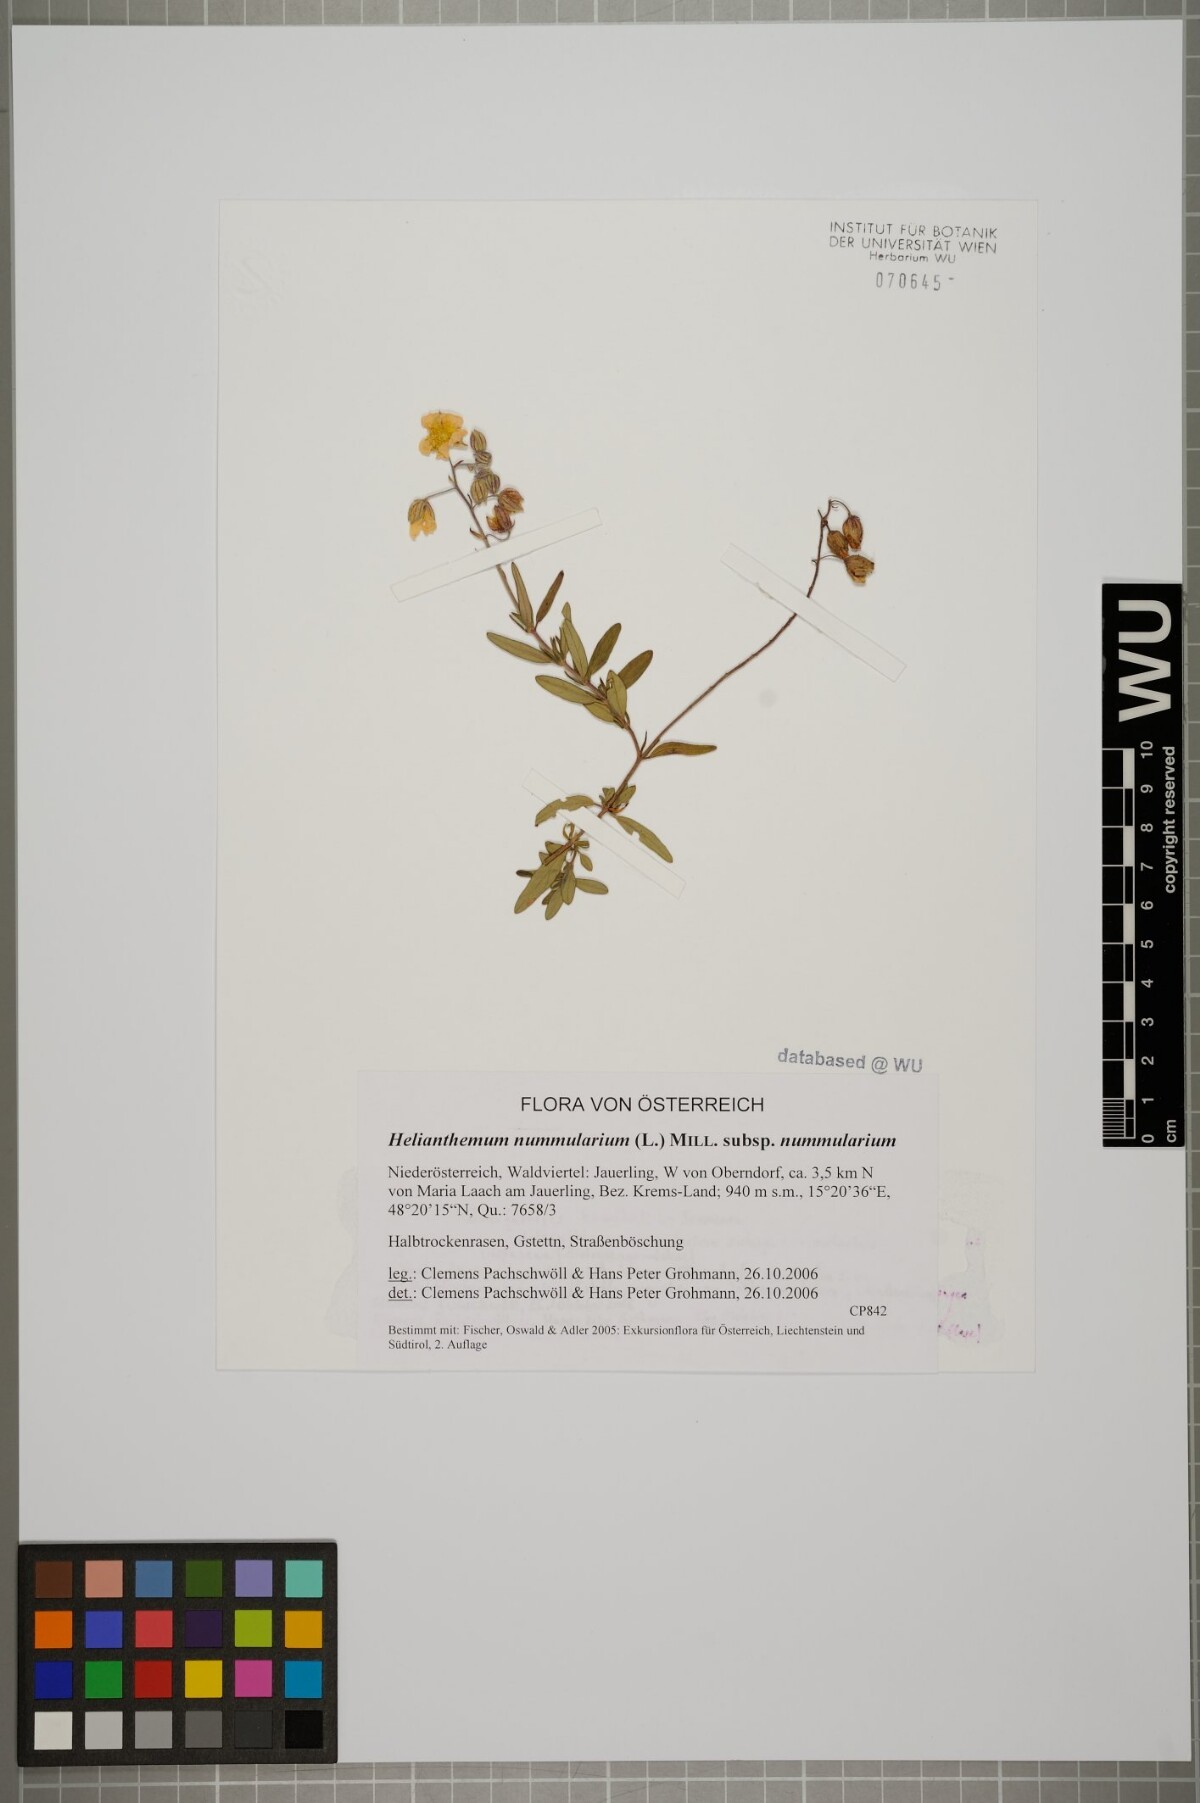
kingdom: Plantae
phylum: Tracheophyta
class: Magnoliopsida
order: Malvales
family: Cistaceae
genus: Helianthemum
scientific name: Helianthemum nummularium
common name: Common rock-rose
